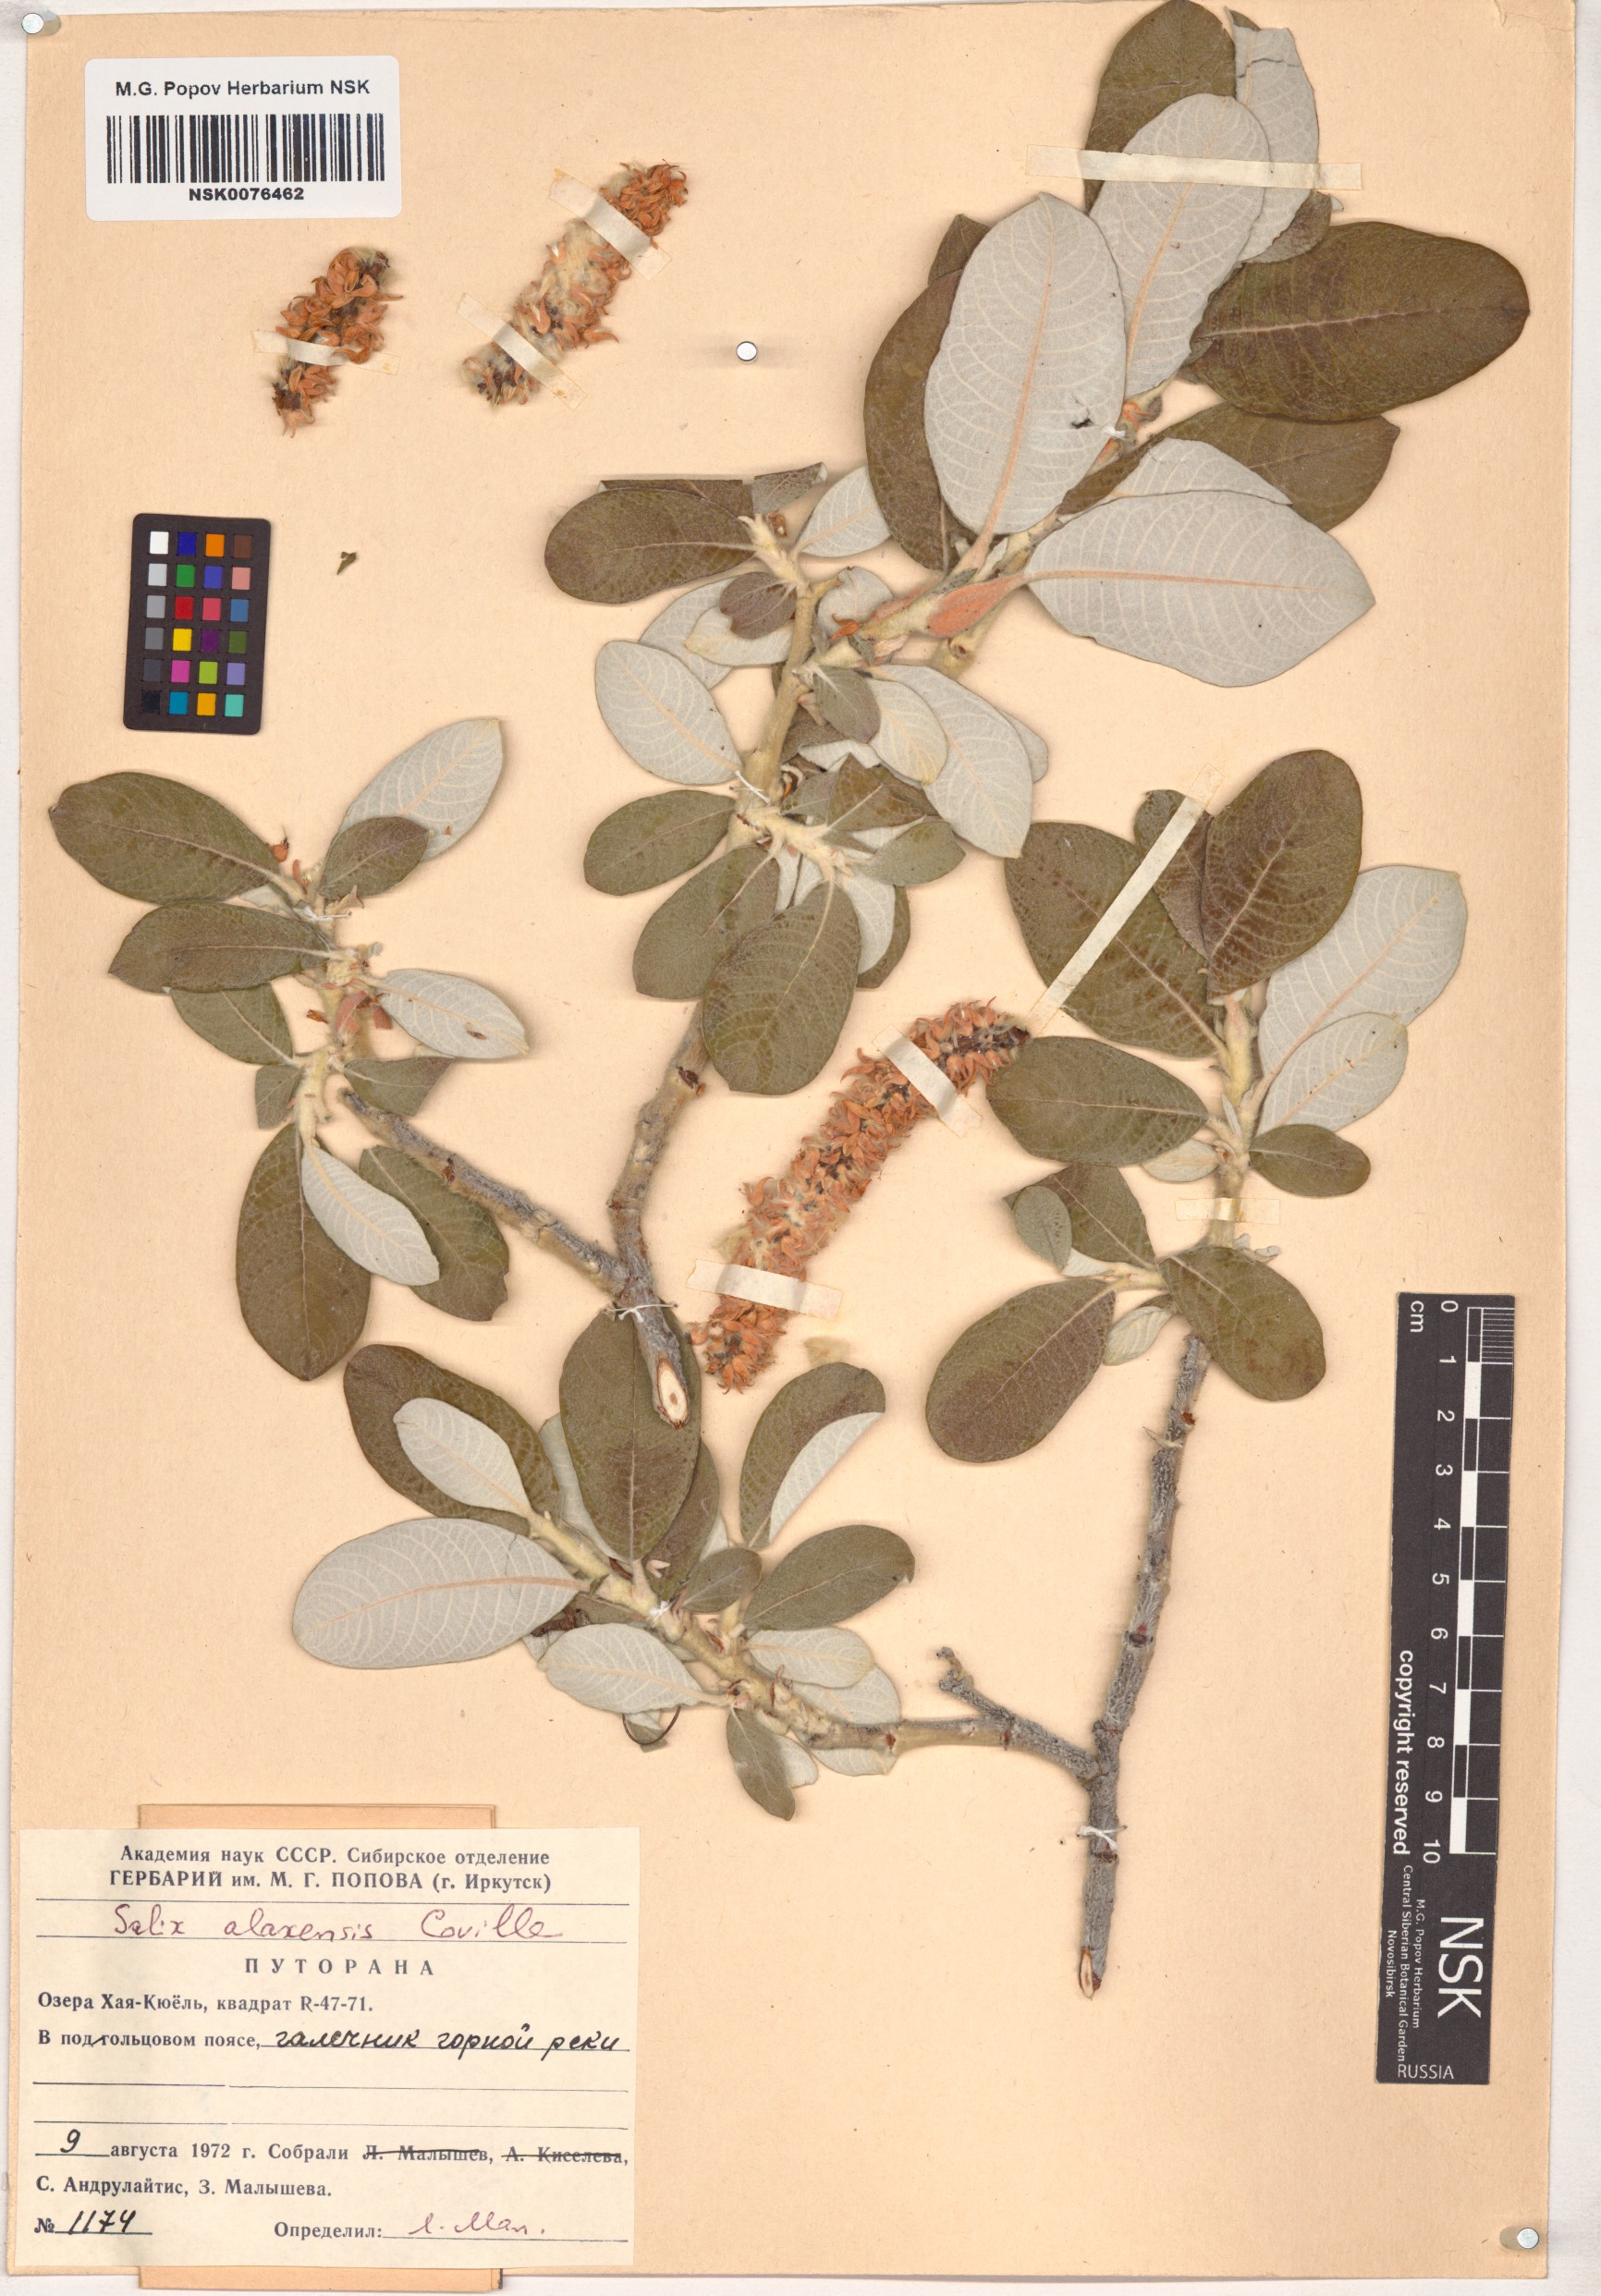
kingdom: Plantae
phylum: Tracheophyta
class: Magnoliopsida
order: Malpighiales
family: Salicaceae
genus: Salix
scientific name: Salix alaxensis
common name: Feltleaf willow
